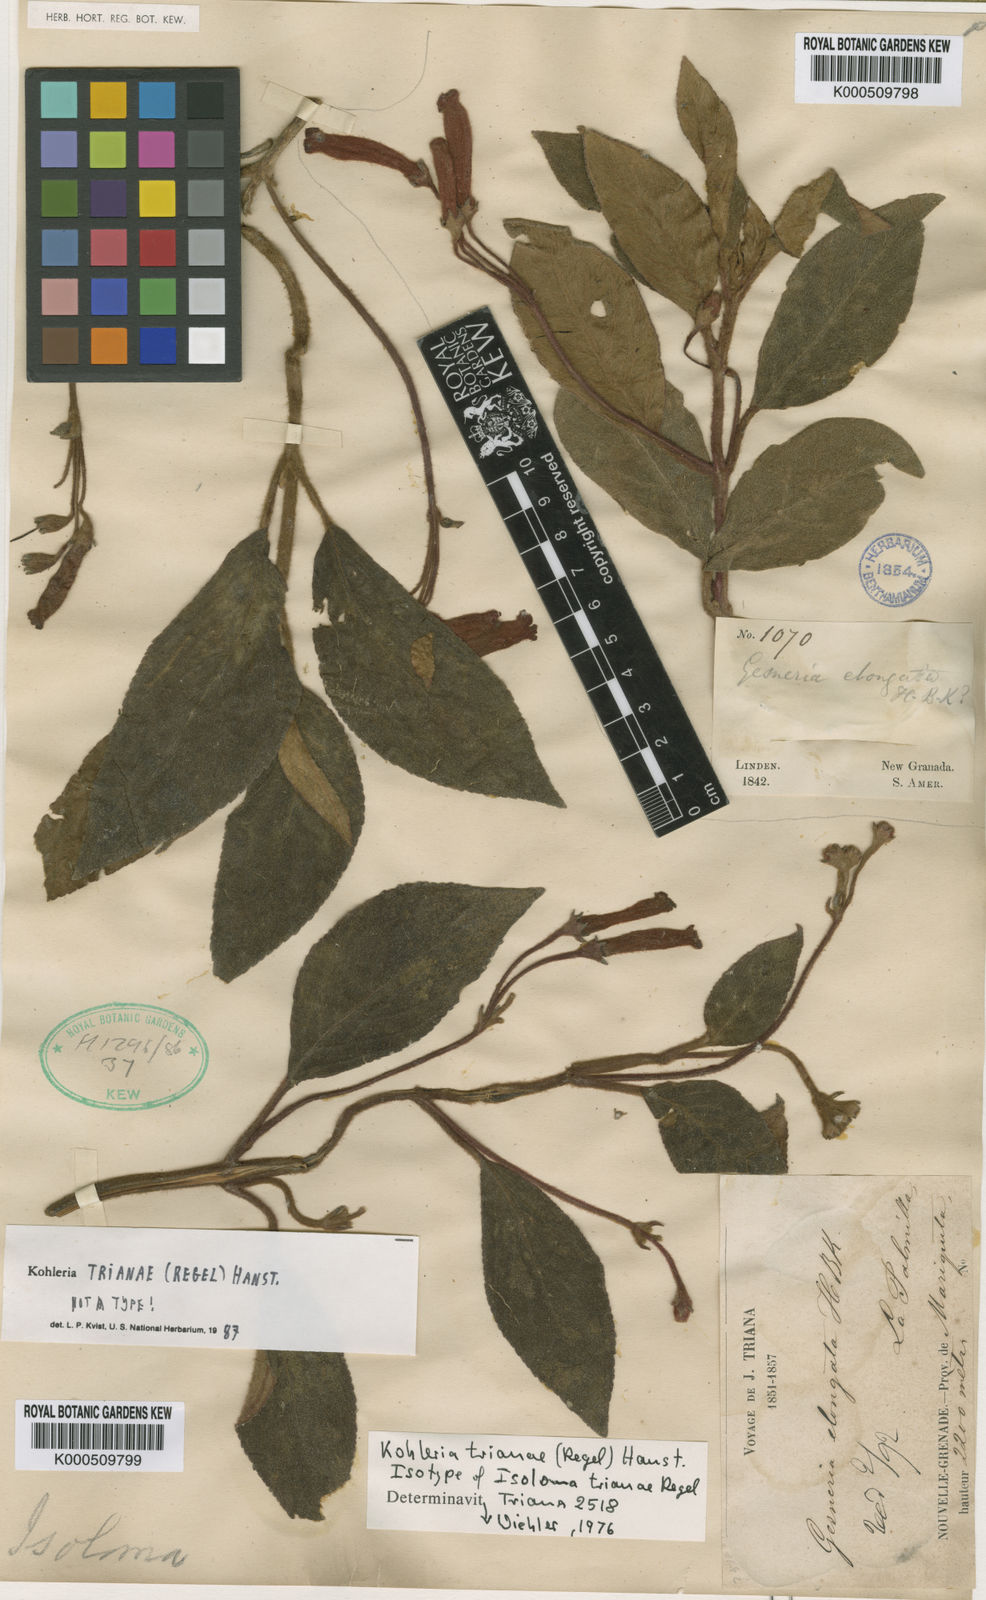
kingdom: Plantae
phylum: Tracheophyta
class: Magnoliopsida
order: Lamiales
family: Gesneriaceae
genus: Kohleria
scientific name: Kohleria trianae
